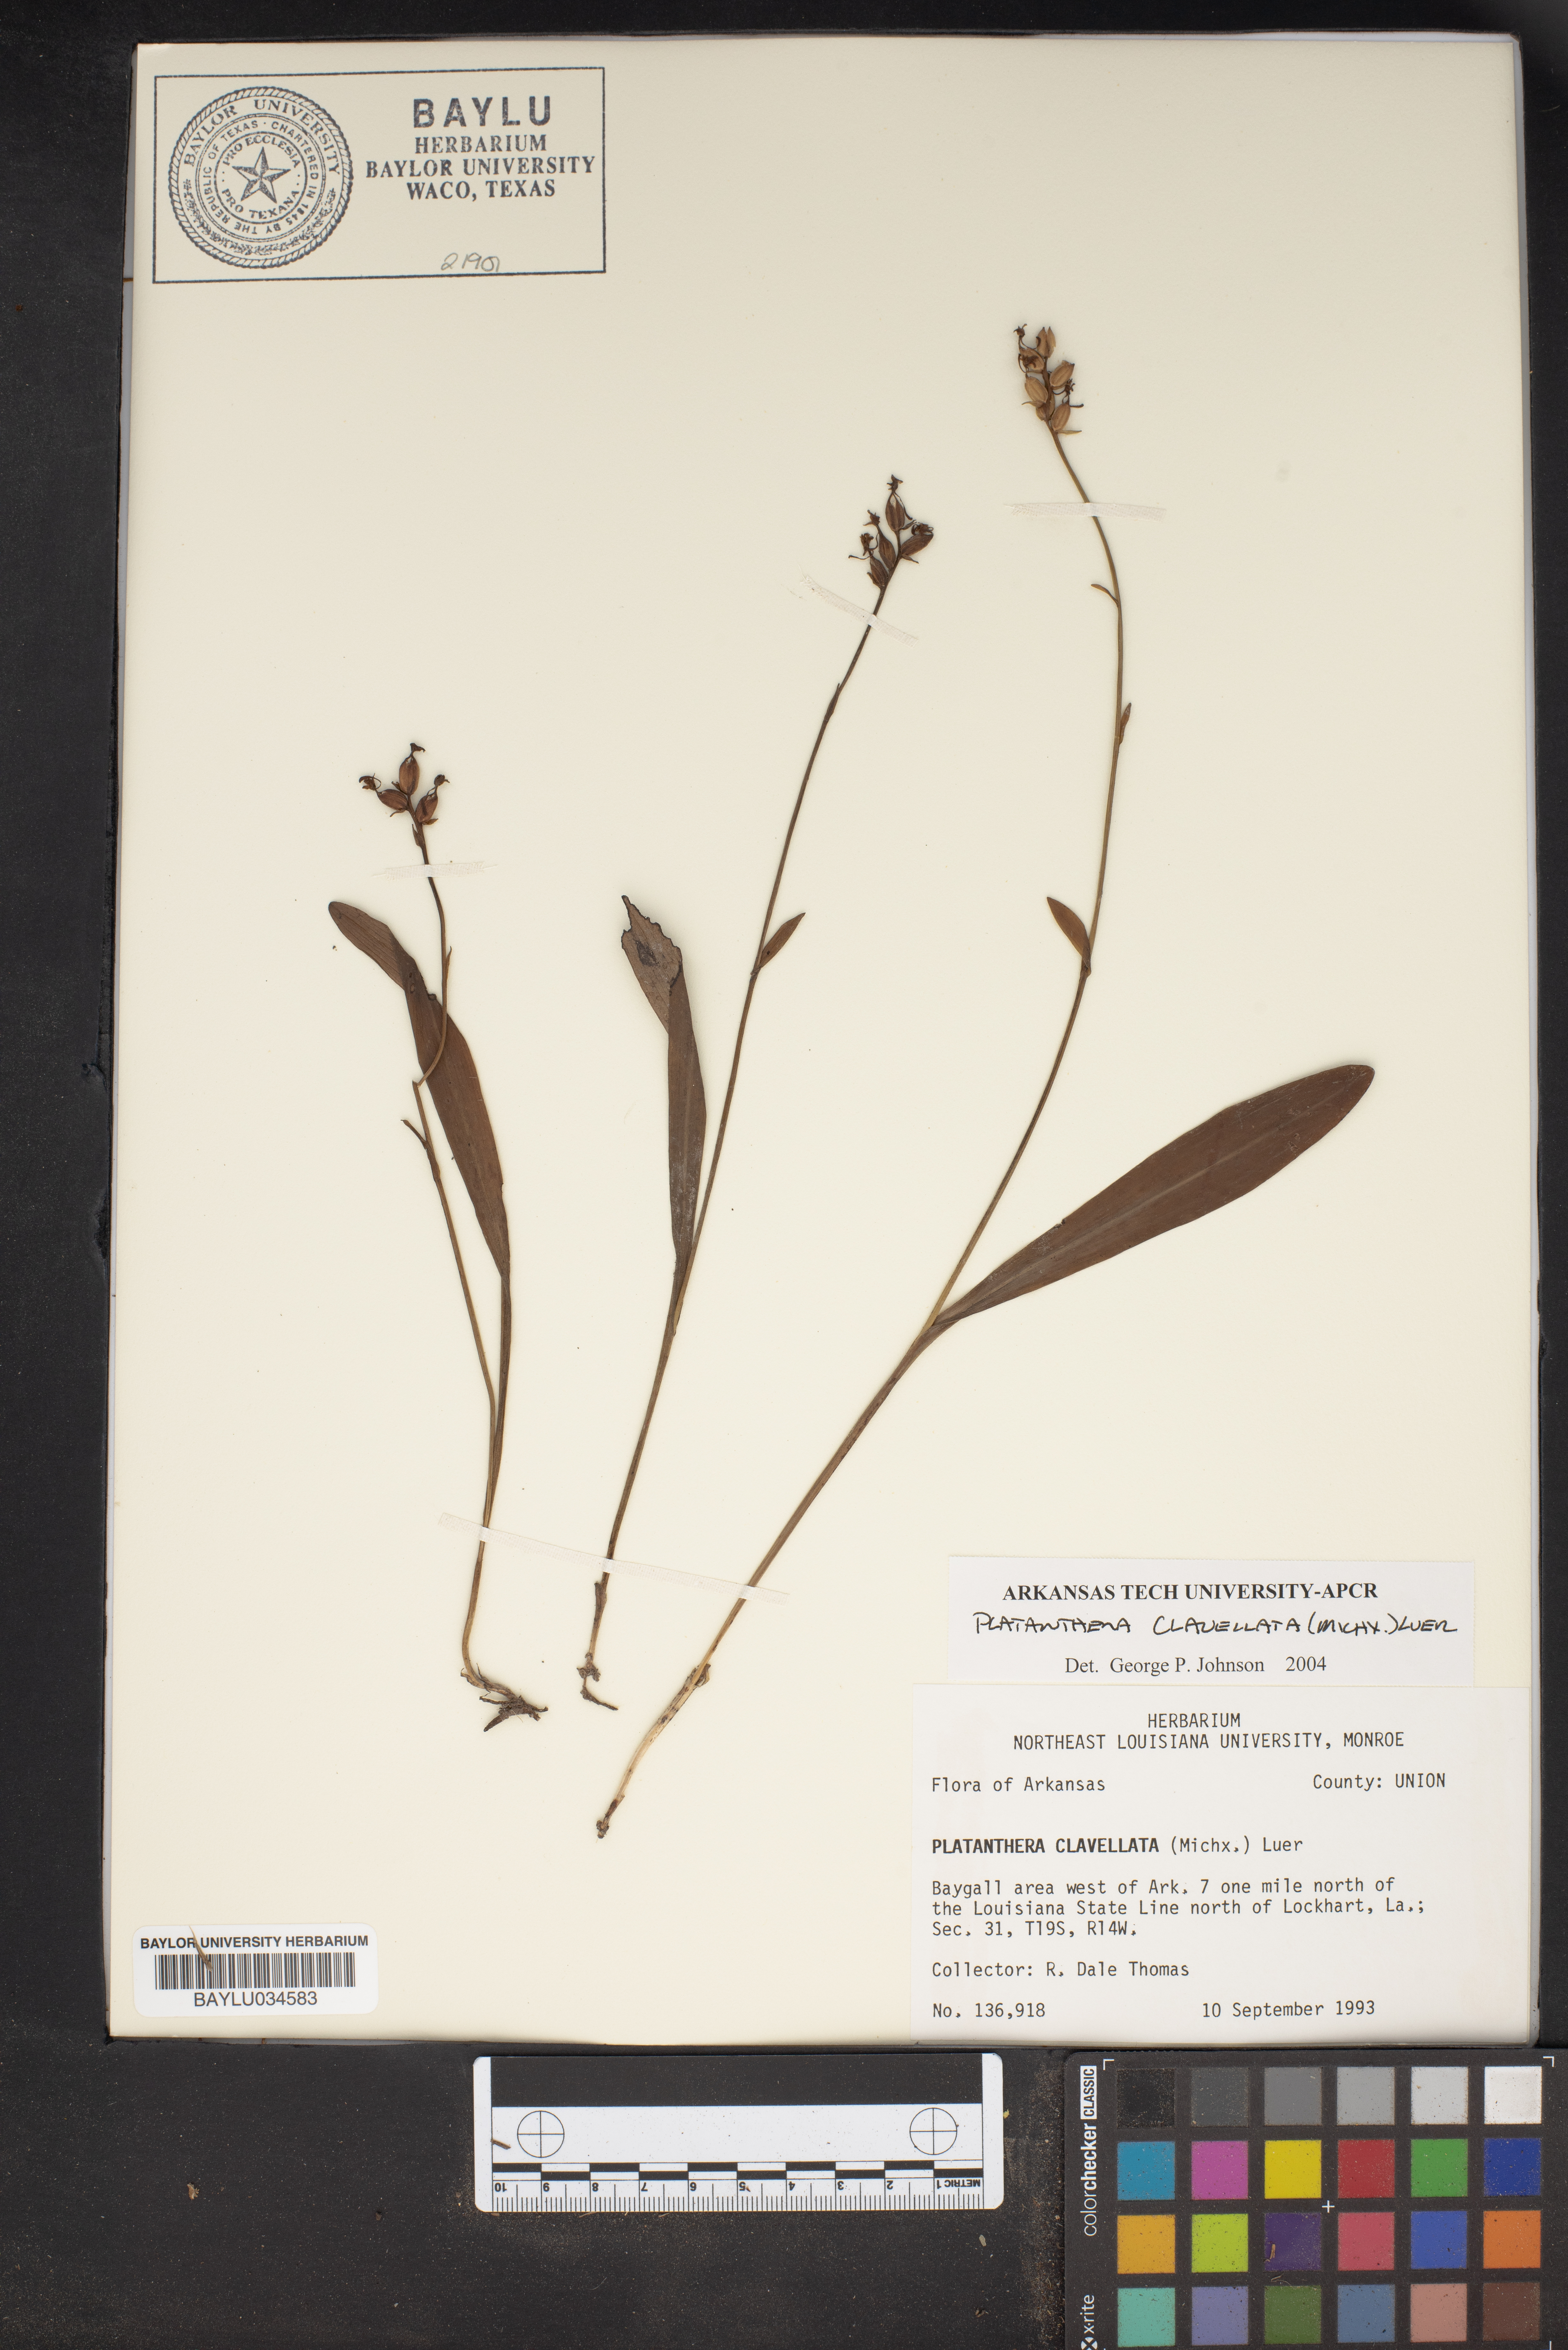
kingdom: Plantae
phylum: Tracheophyta
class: Liliopsida
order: Asparagales
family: Orchidaceae
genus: Platanthera
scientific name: Platanthera clavellata
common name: Club-spur orchid
